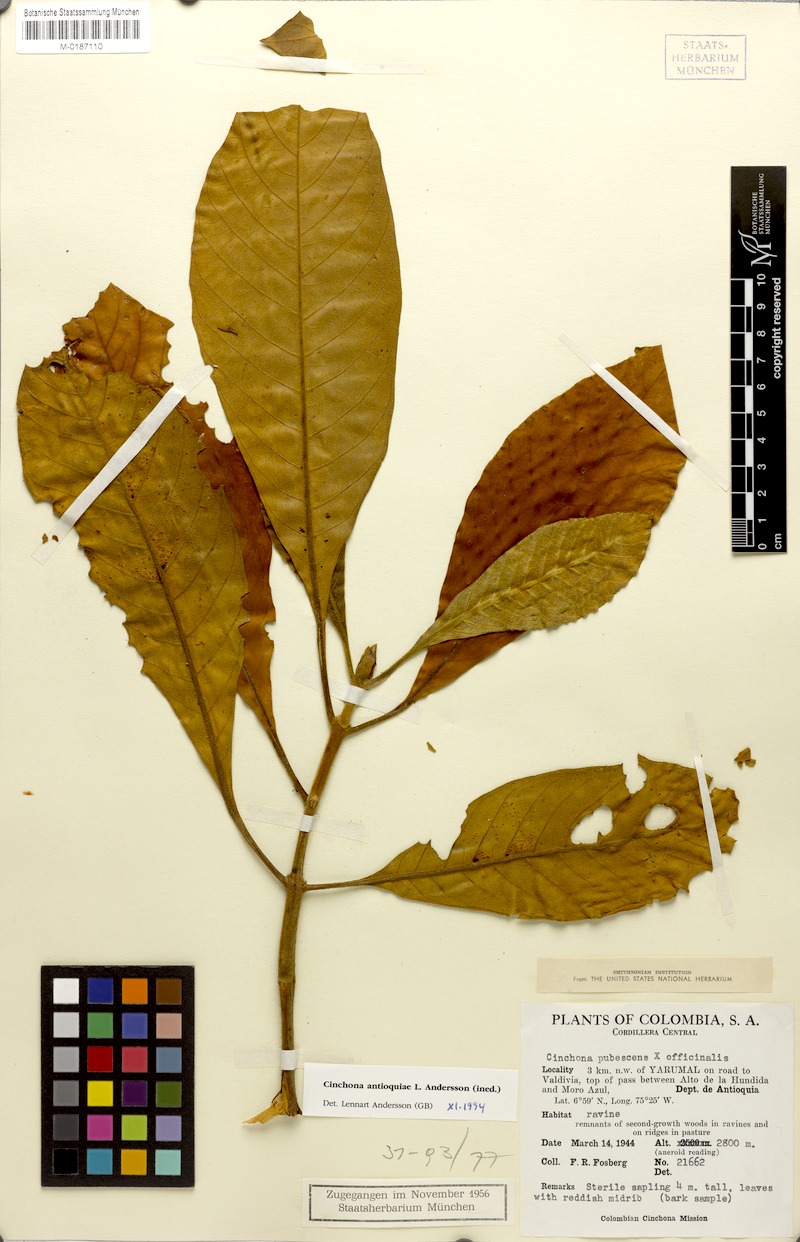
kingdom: Plantae
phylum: Tracheophyta
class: Magnoliopsida
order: Gentianales
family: Rubiaceae
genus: Cinchona
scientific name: Cinchona antioquiae
